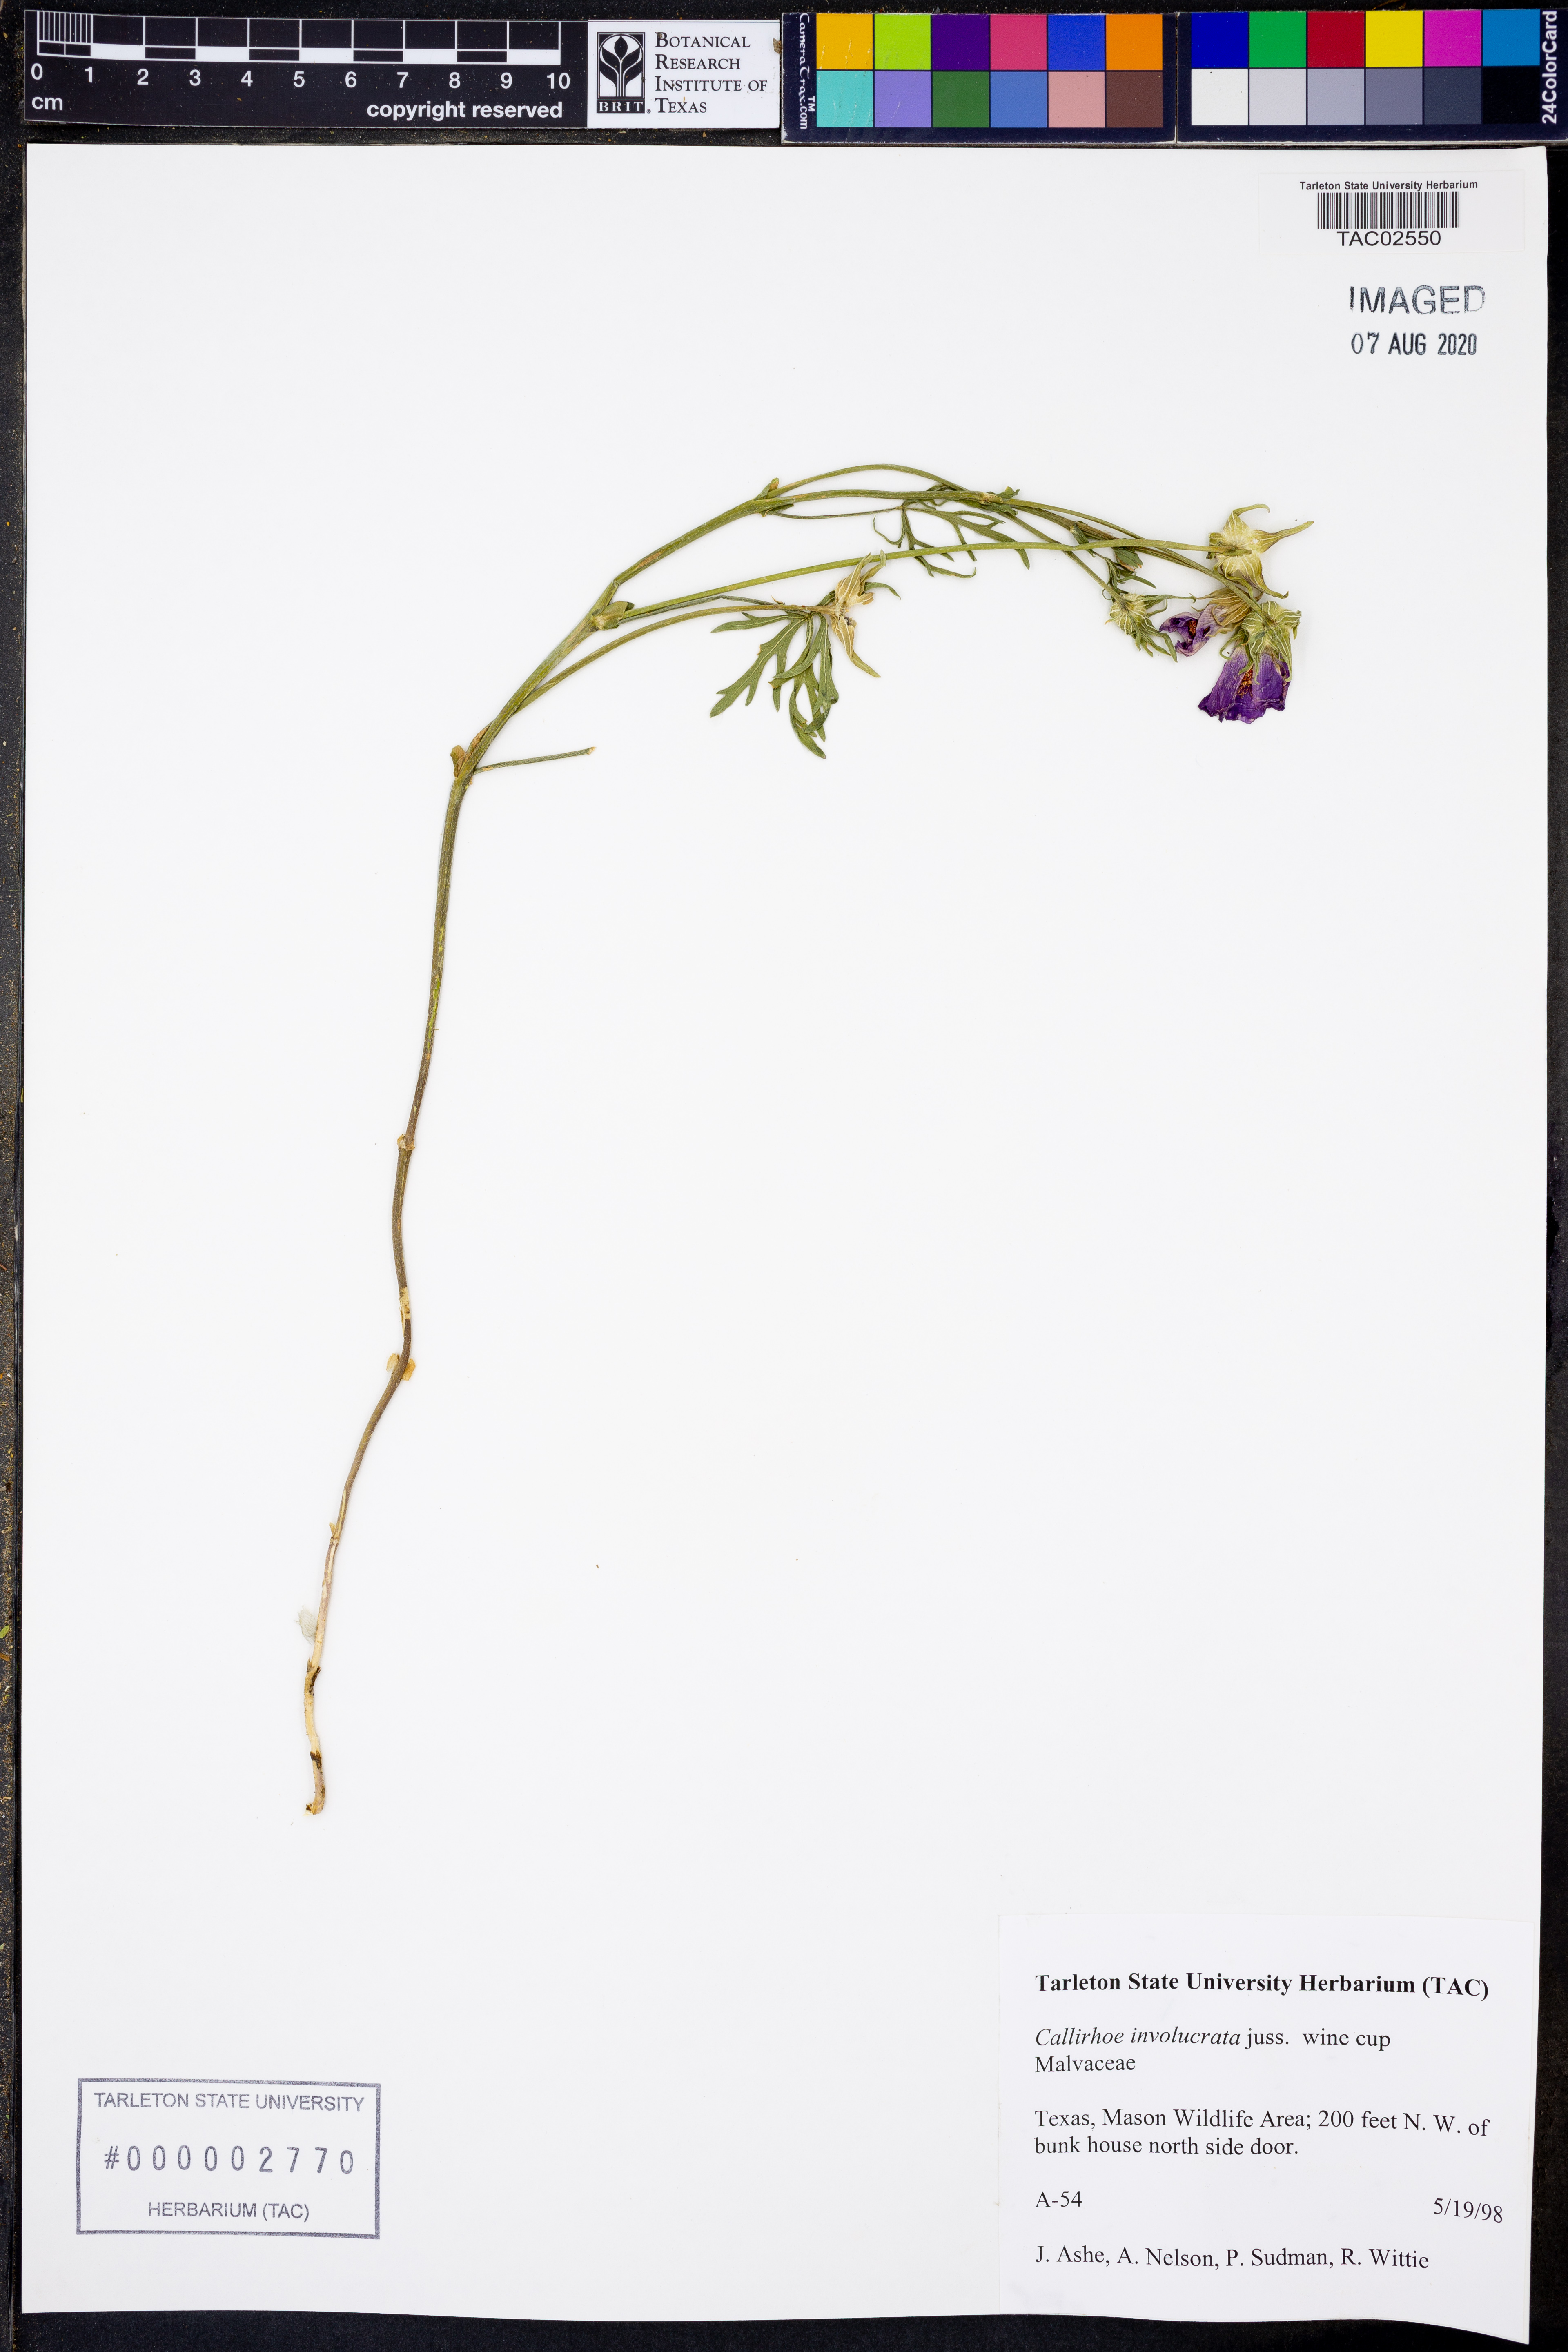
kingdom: Plantae
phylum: Tracheophyta
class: Magnoliopsida
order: Malvales
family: Malvaceae
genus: Callirhoe
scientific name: Callirhoe involucrata
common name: Purple poppy-mallow
